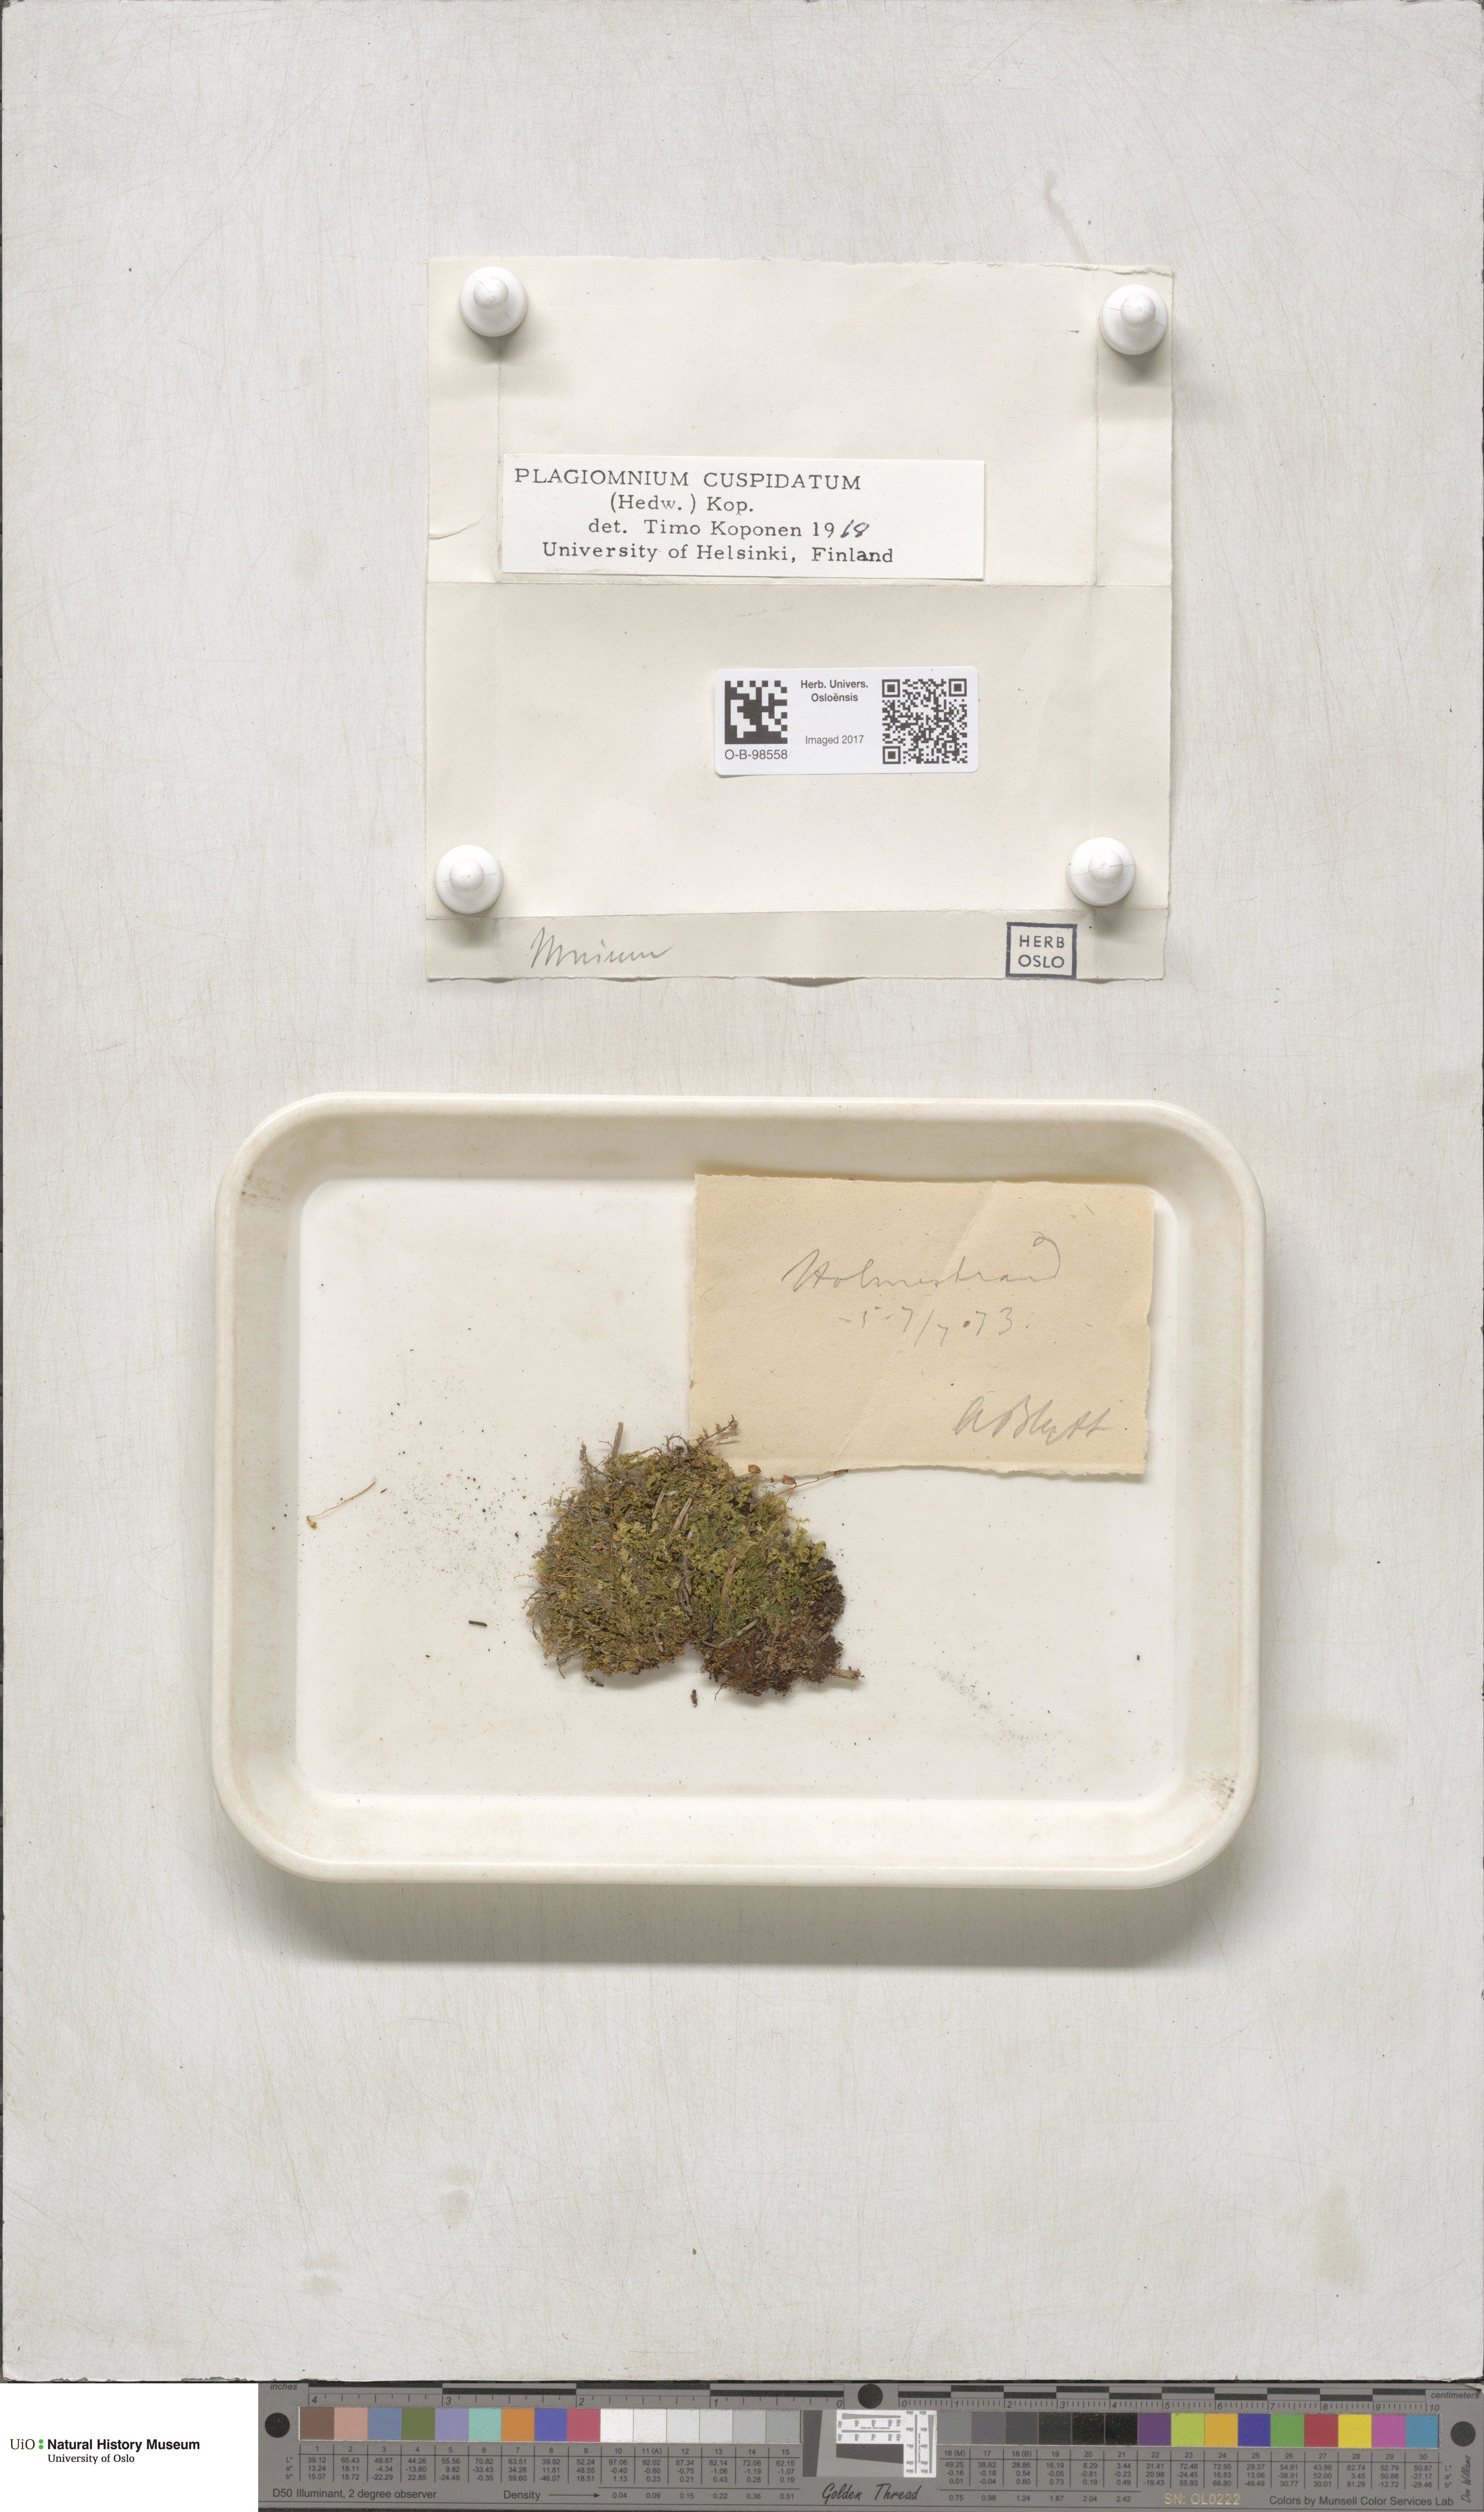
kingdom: Plantae
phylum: Bryophyta
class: Bryopsida
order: Bryales
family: Mniaceae
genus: Plagiomnium
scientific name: Plagiomnium cuspidatum
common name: Woodsy leafy moss
